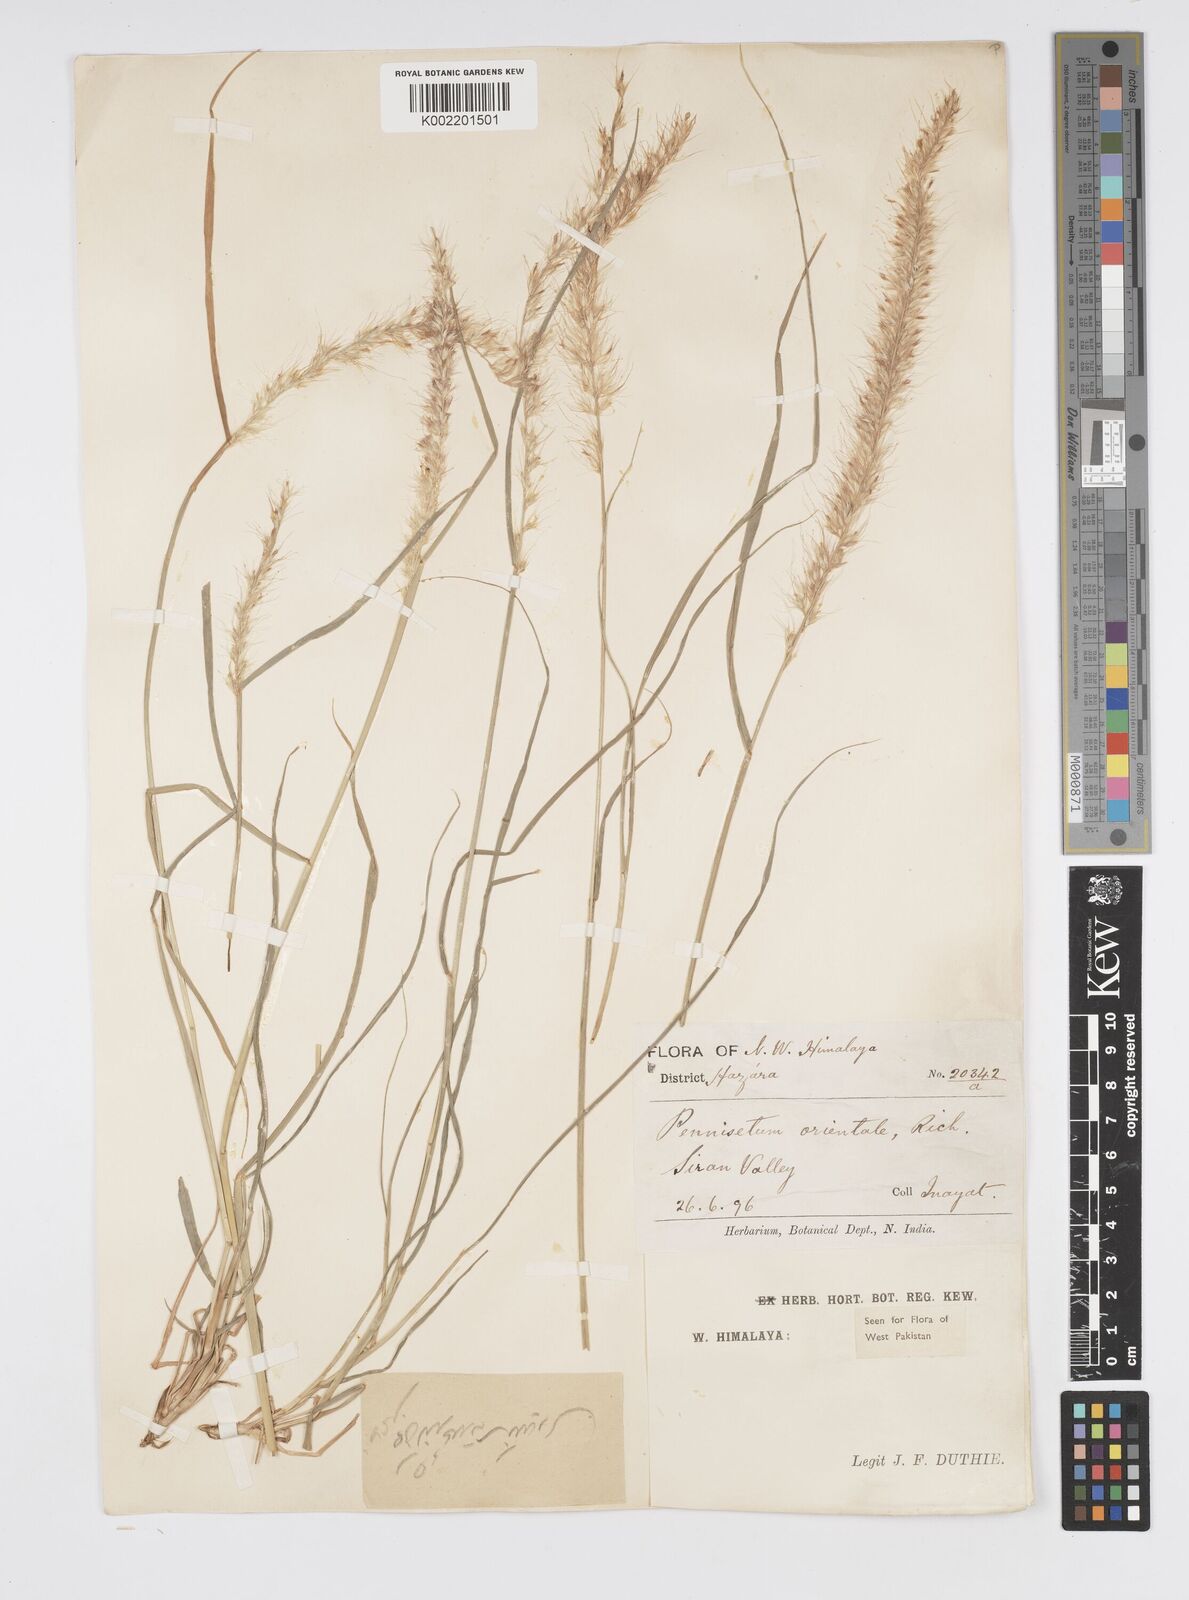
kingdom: Plantae
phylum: Tracheophyta
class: Liliopsida
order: Poales
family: Poaceae
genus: Cenchrus
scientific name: Cenchrus orientalis
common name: Oriental fountain grass
